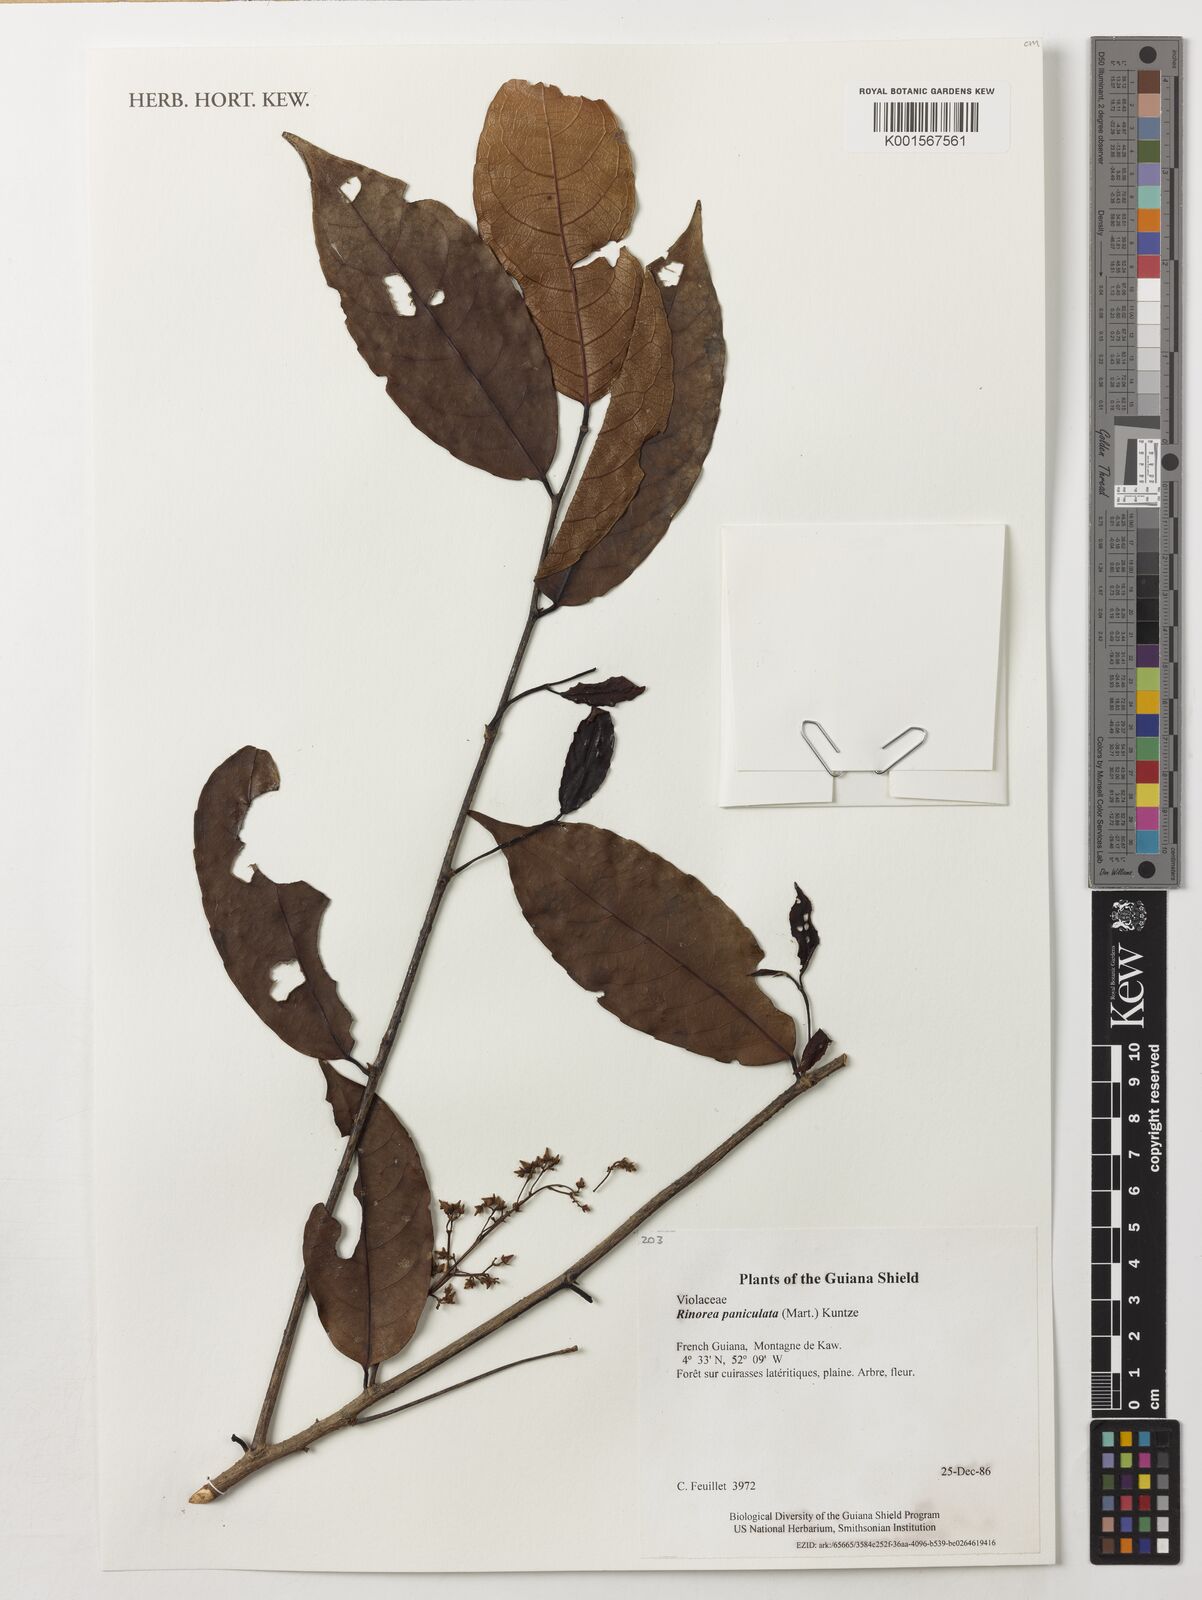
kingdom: Plantae
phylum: Tracheophyta
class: Magnoliopsida
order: Malpighiales
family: Violaceae
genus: Rinorea
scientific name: Rinorea paniculata
